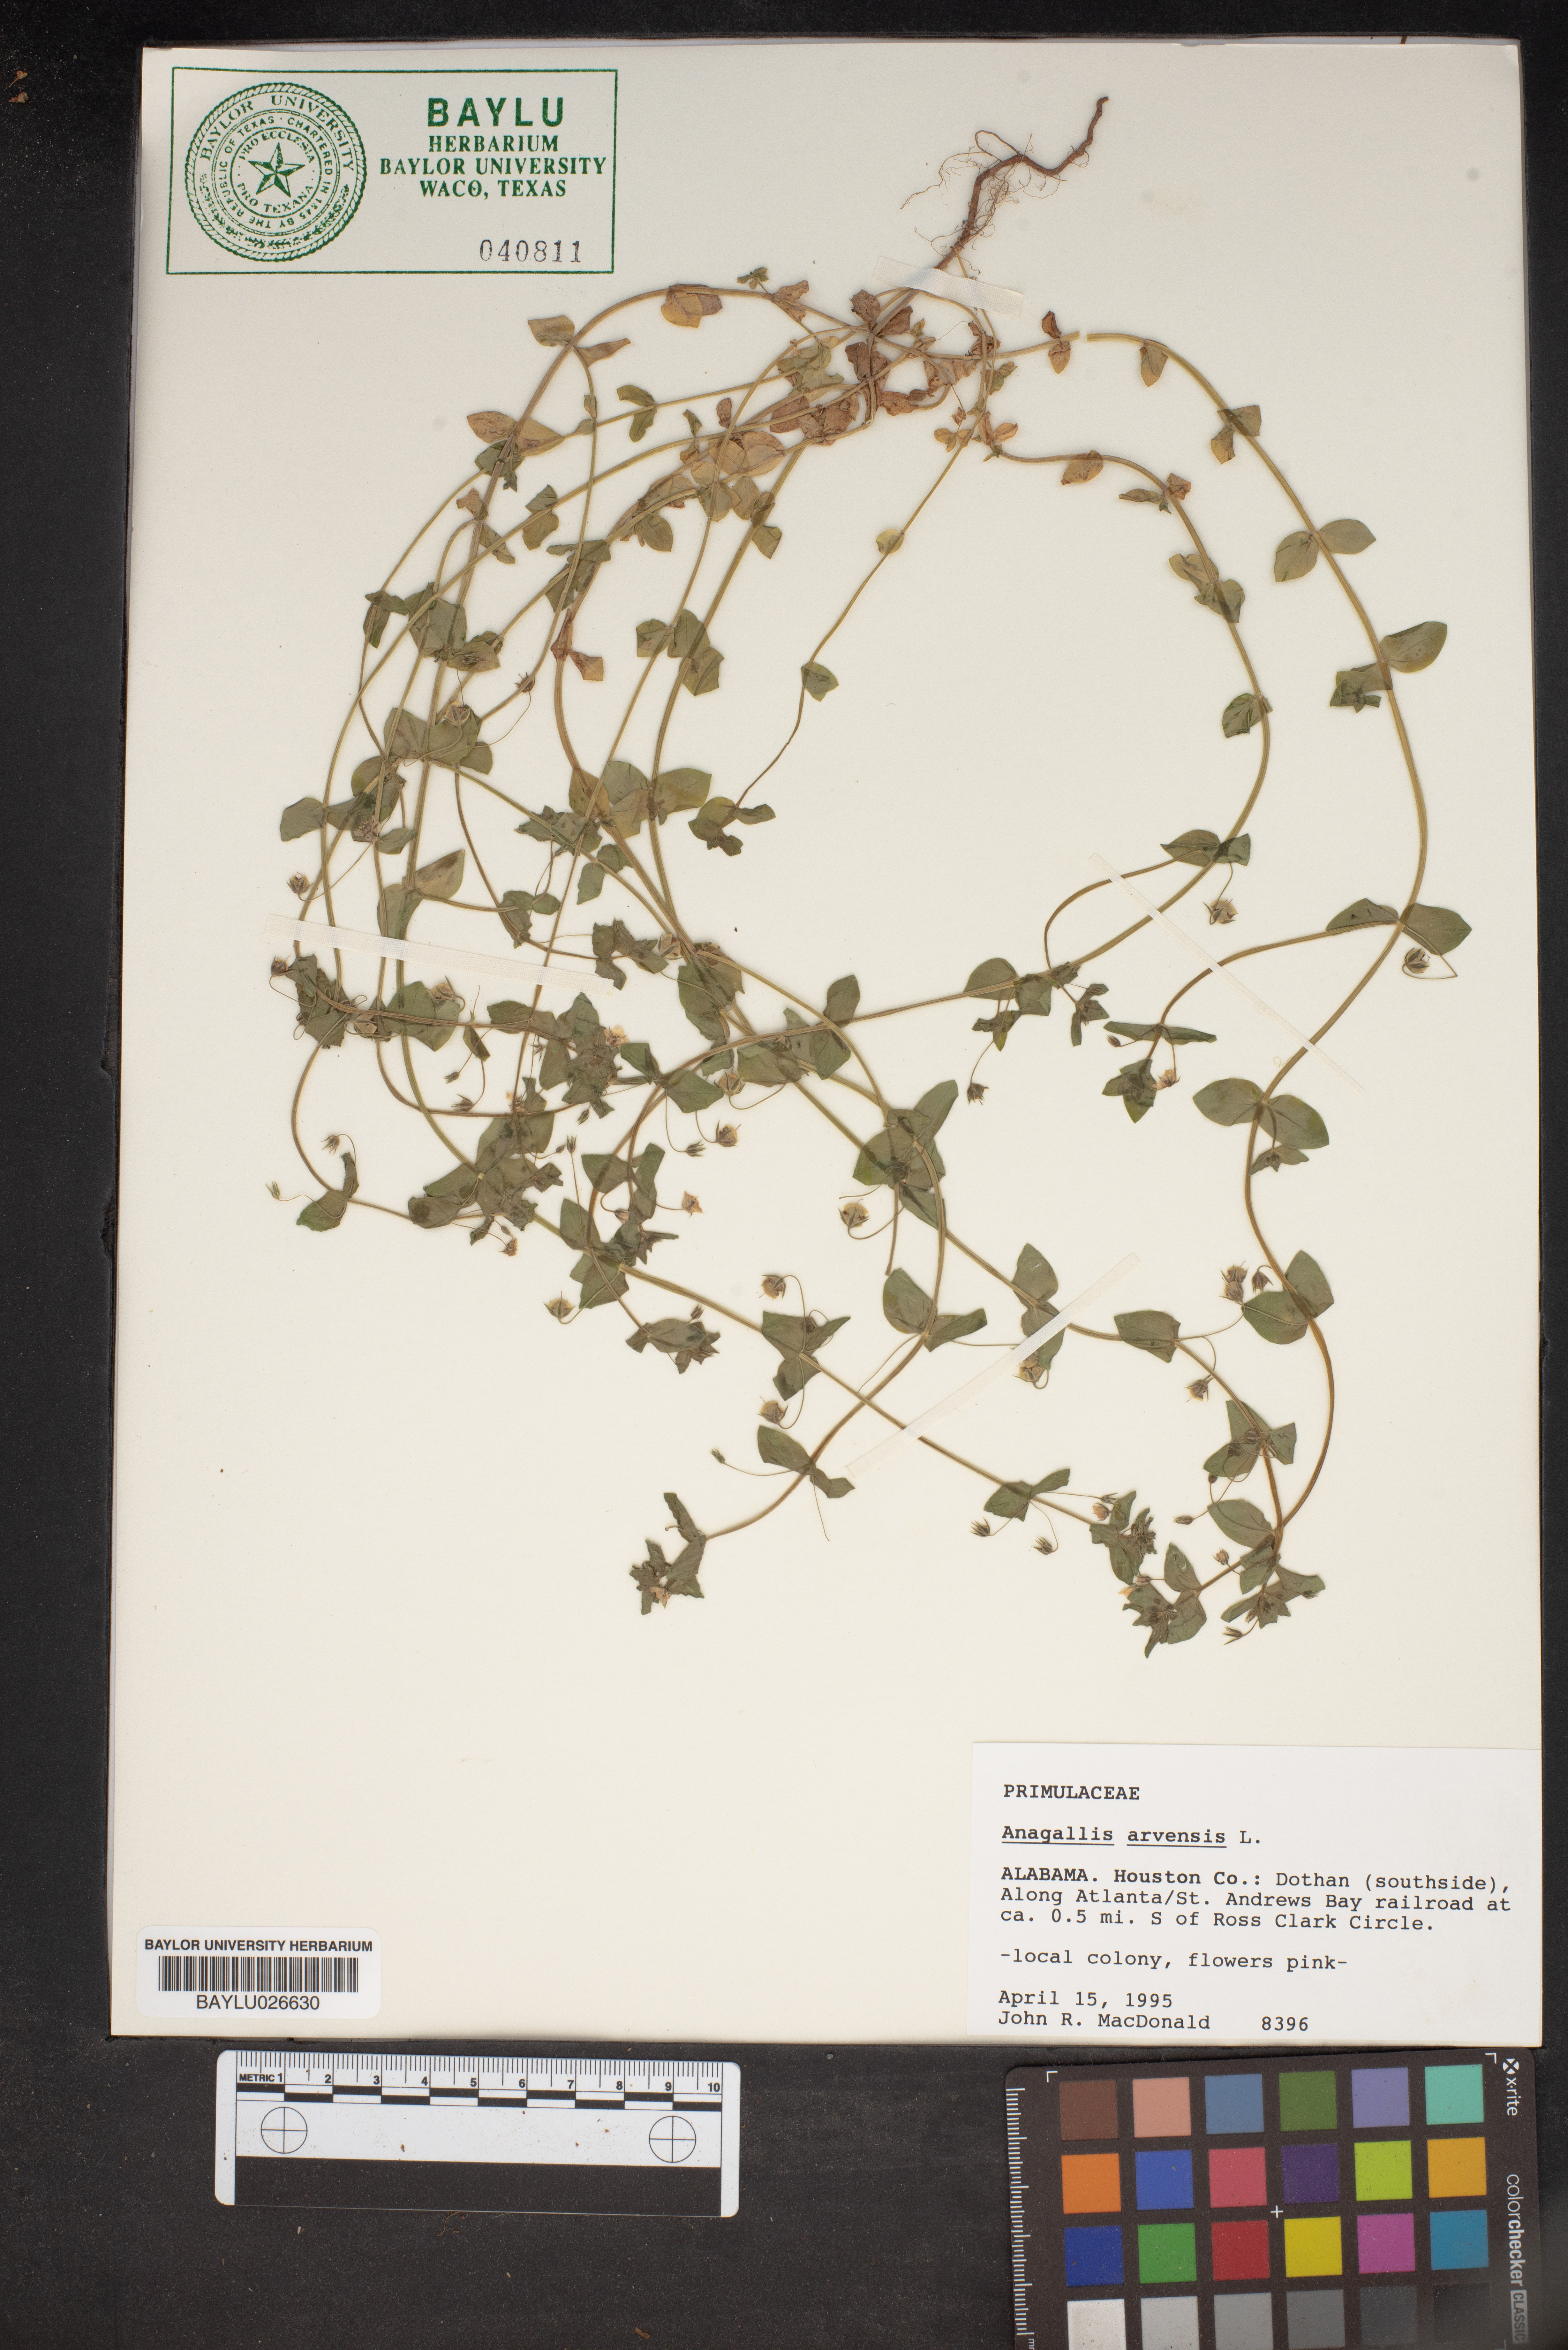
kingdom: Plantae
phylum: Tracheophyta
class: Magnoliopsida
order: Ericales
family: Primulaceae
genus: Lysimachia
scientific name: Lysimachia arvensis
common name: Scarlet pimpernel
